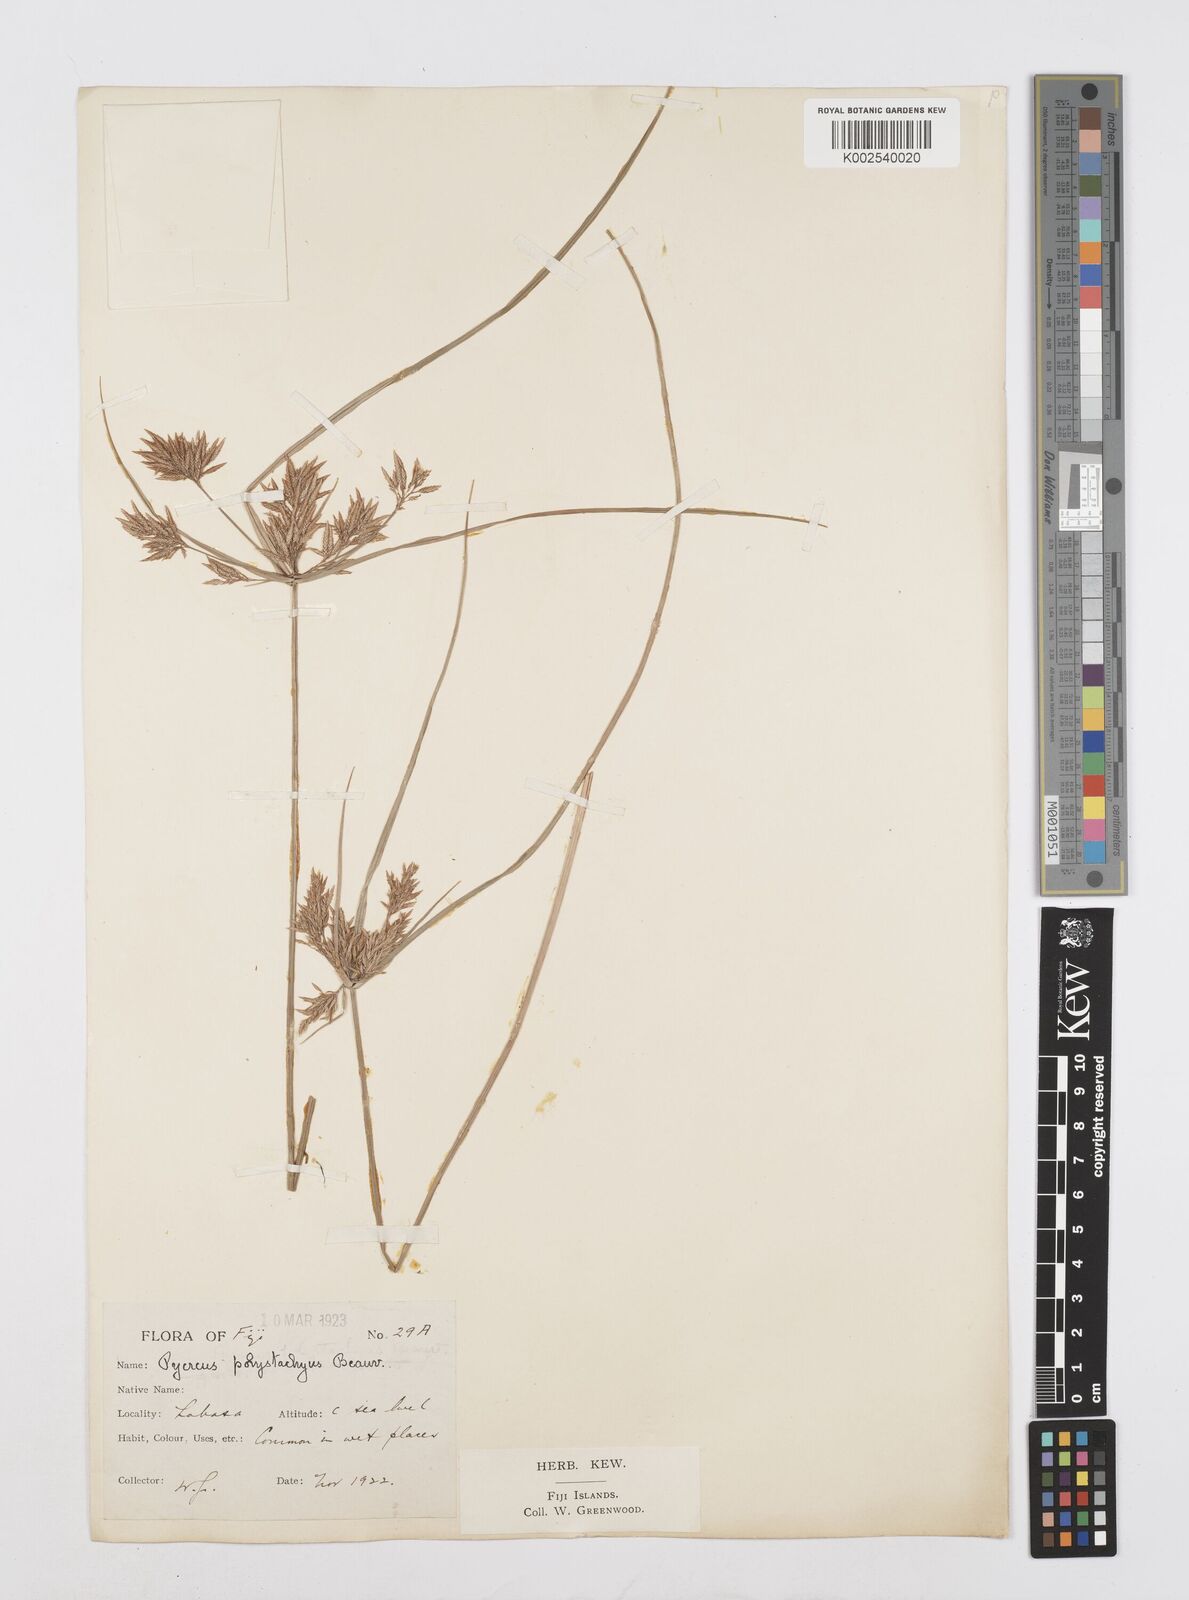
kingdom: Plantae
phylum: Tracheophyta
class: Liliopsida
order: Poales
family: Cyperaceae
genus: Cyperus
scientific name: Cyperus polystachyos
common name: Bunchy flat sedge
